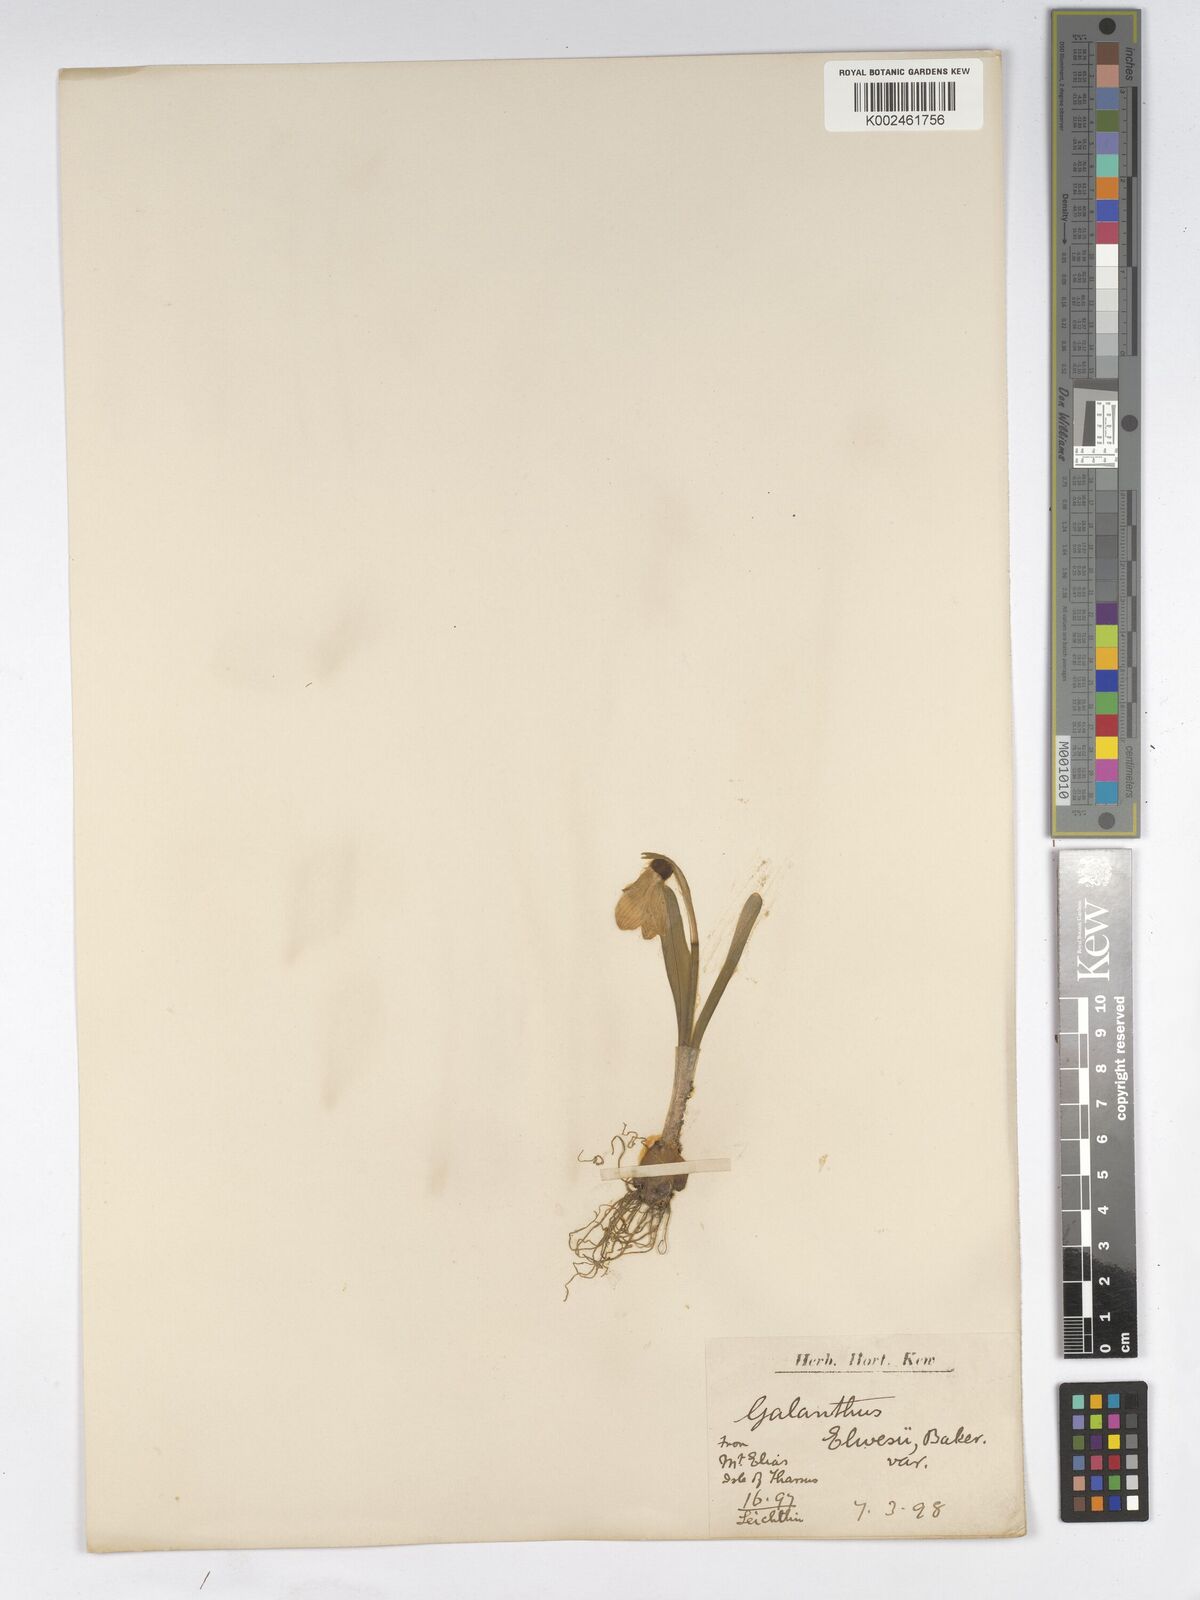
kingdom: Plantae
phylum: Tracheophyta
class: Liliopsida
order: Asparagales
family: Amaryllidaceae
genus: Galanthus
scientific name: Galanthus elwesii
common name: Greater snowdrop
